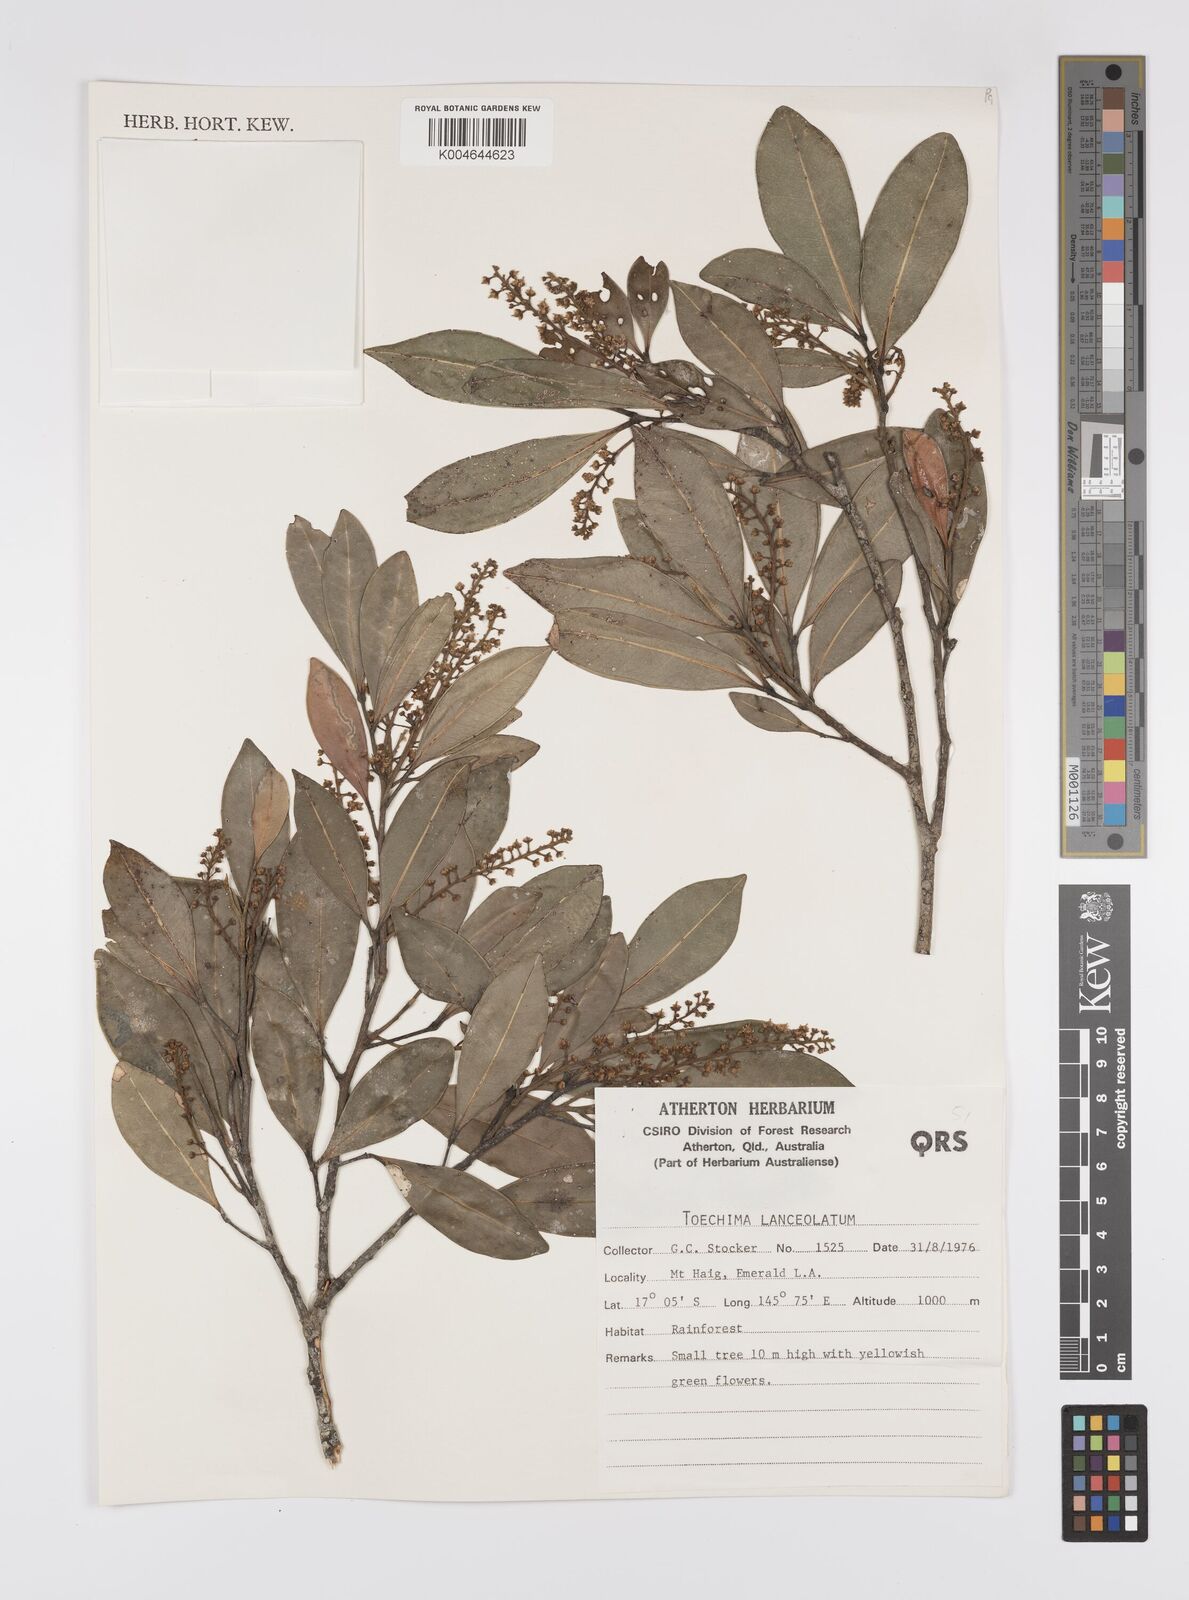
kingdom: Plantae
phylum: Tracheophyta
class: Magnoliopsida
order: Sapindales
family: Sapindaceae
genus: Sarcotoechia
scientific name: Sarcotoechia lanceolata
